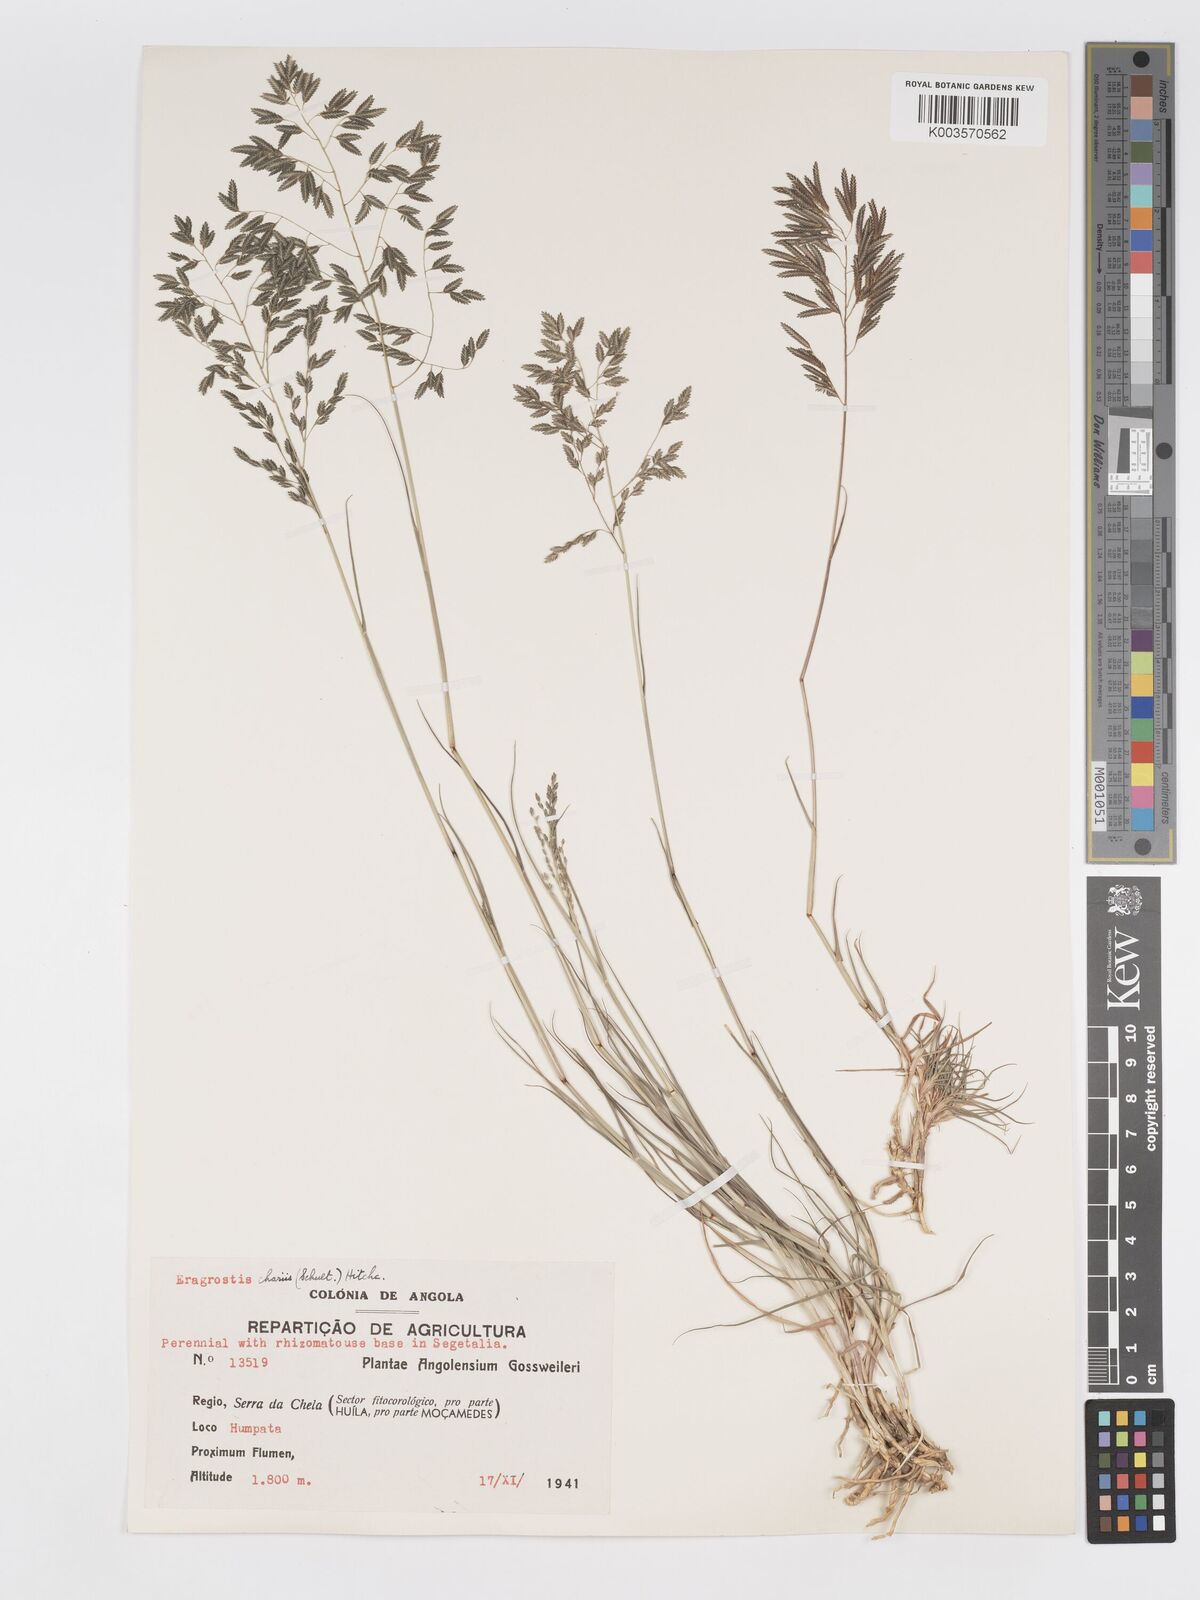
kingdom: Plantae
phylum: Tracheophyta
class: Liliopsida
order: Poales
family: Poaceae
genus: Eragrostis
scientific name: Eragrostis inamoena
